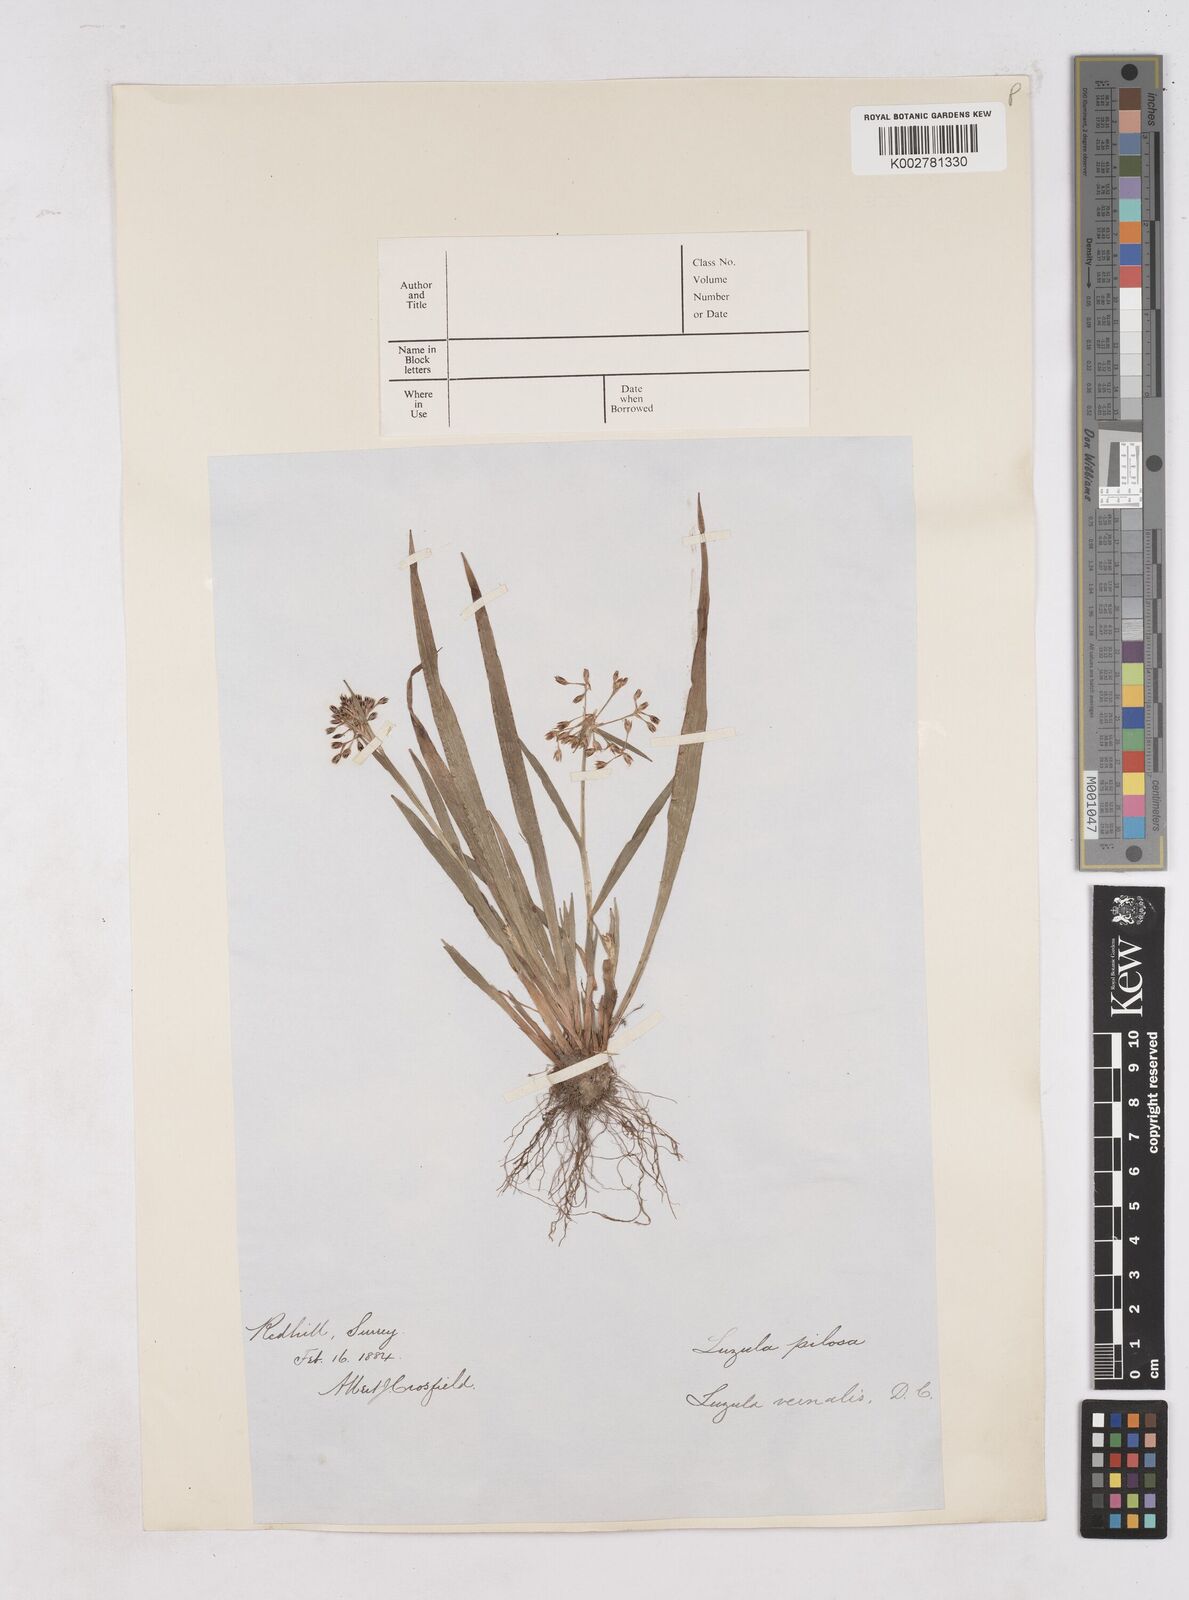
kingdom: Plantae
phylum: Tracheophyta
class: Liliopsida
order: Poales
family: Juncaceae
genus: Luzula
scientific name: Luzula pilosa
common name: Hairy wood-rush
